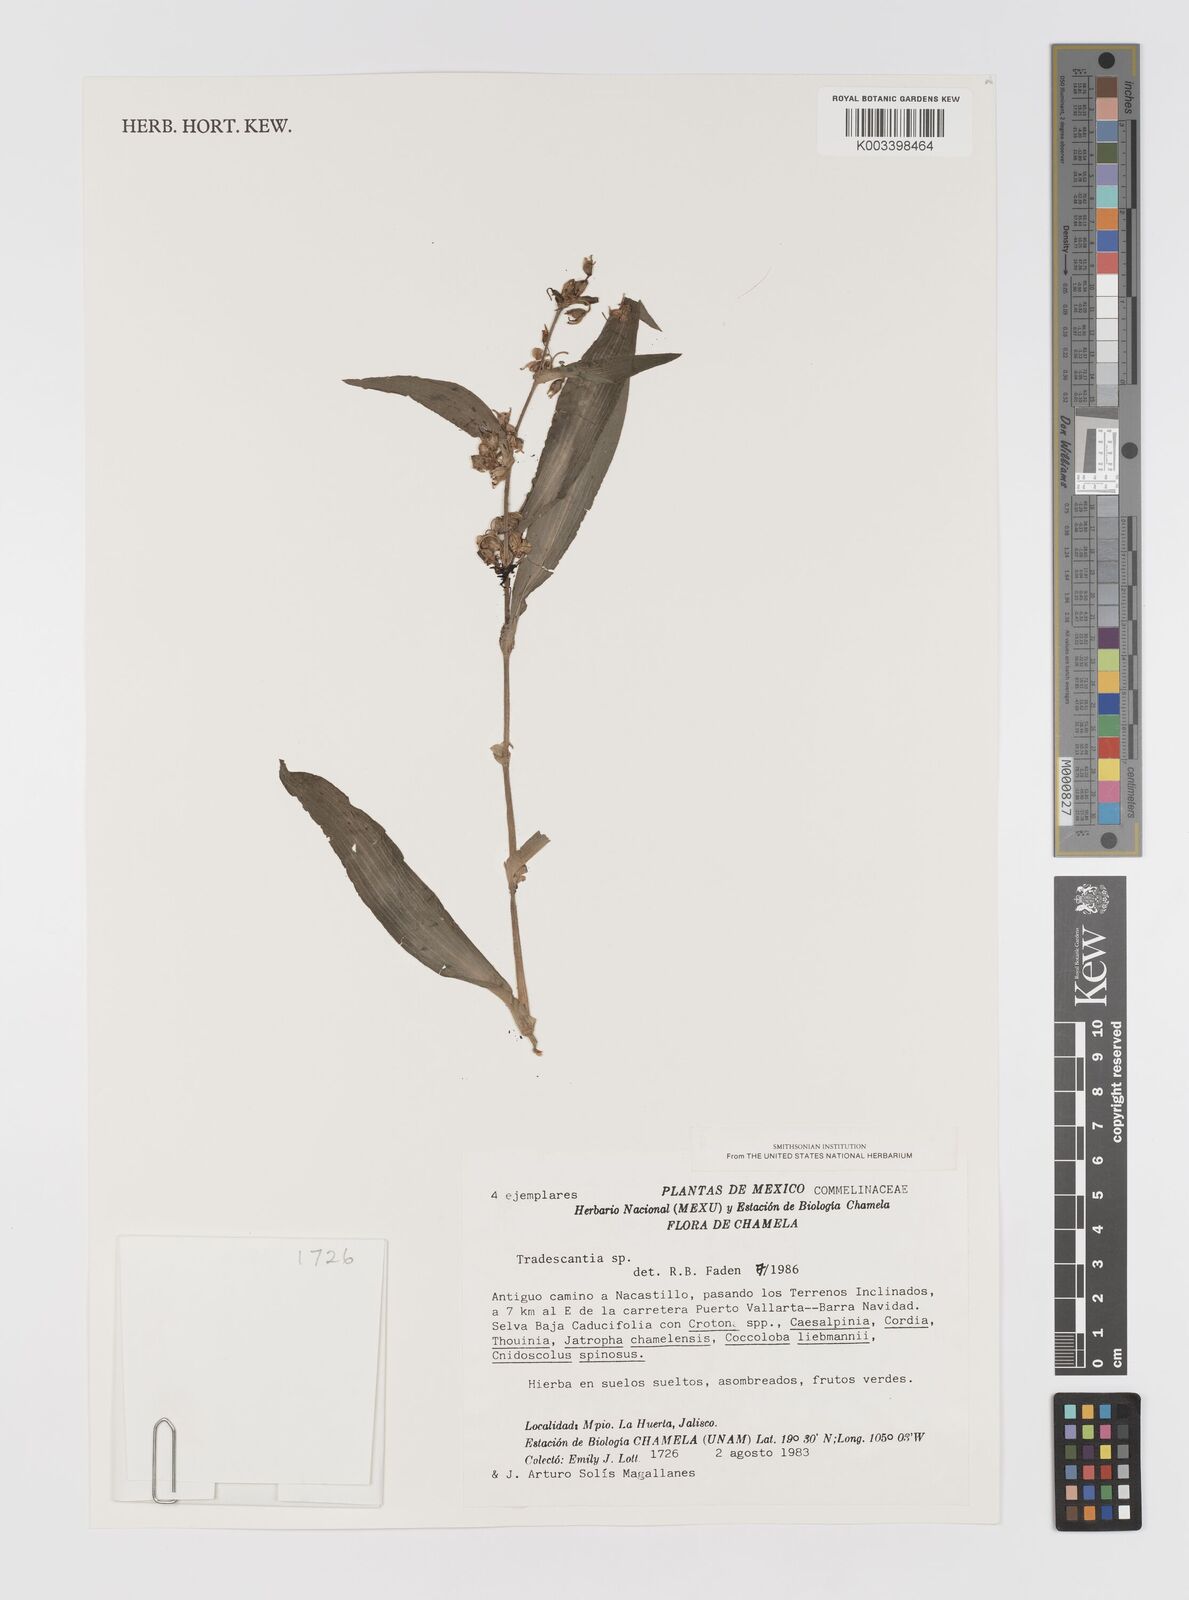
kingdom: Plantae
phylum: Tracheophyta
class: Liliopsida
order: Commelinales
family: Commelinaceae
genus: Tradescantia
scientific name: Tradescantia
